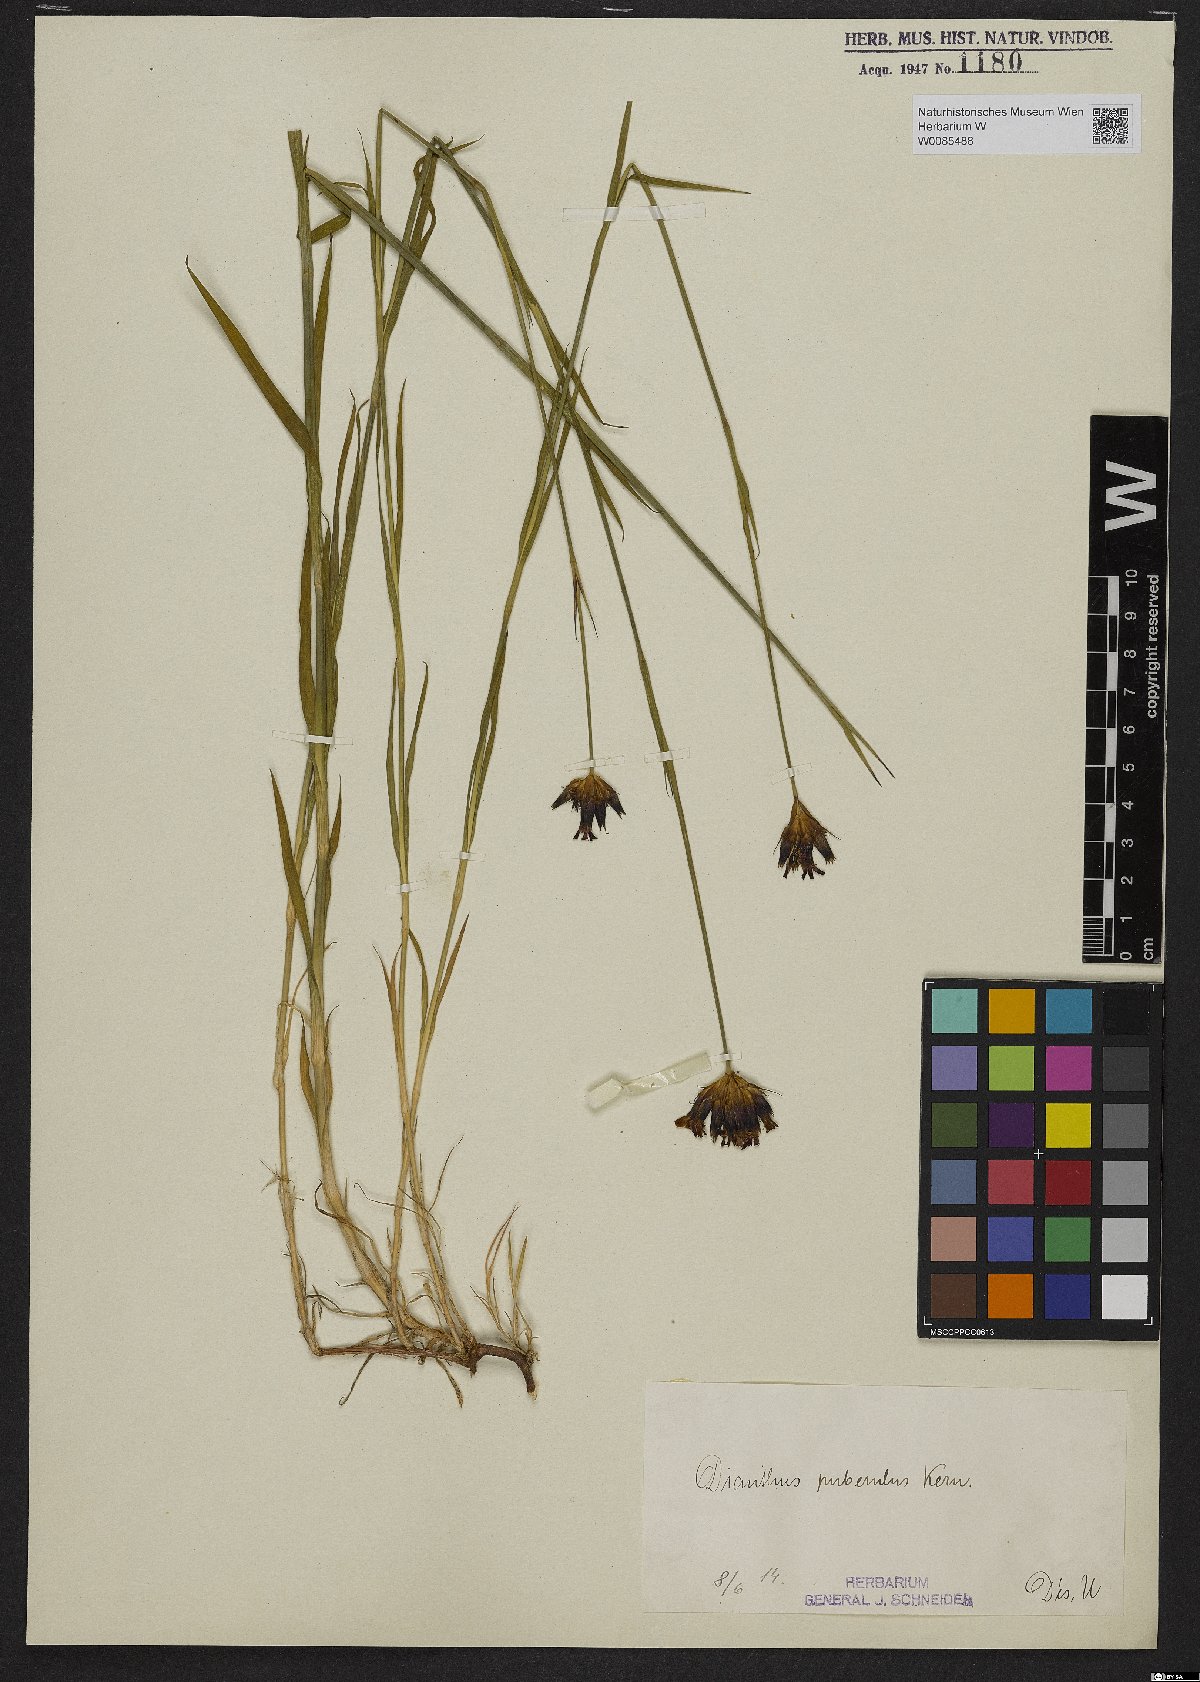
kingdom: Plantae
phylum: Tracheophyta
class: Magnoliopsida
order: Caryophyllales
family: Caryophyllaceae
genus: Dianthus
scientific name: Dianthus carthusianorum
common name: Carthusian pink
